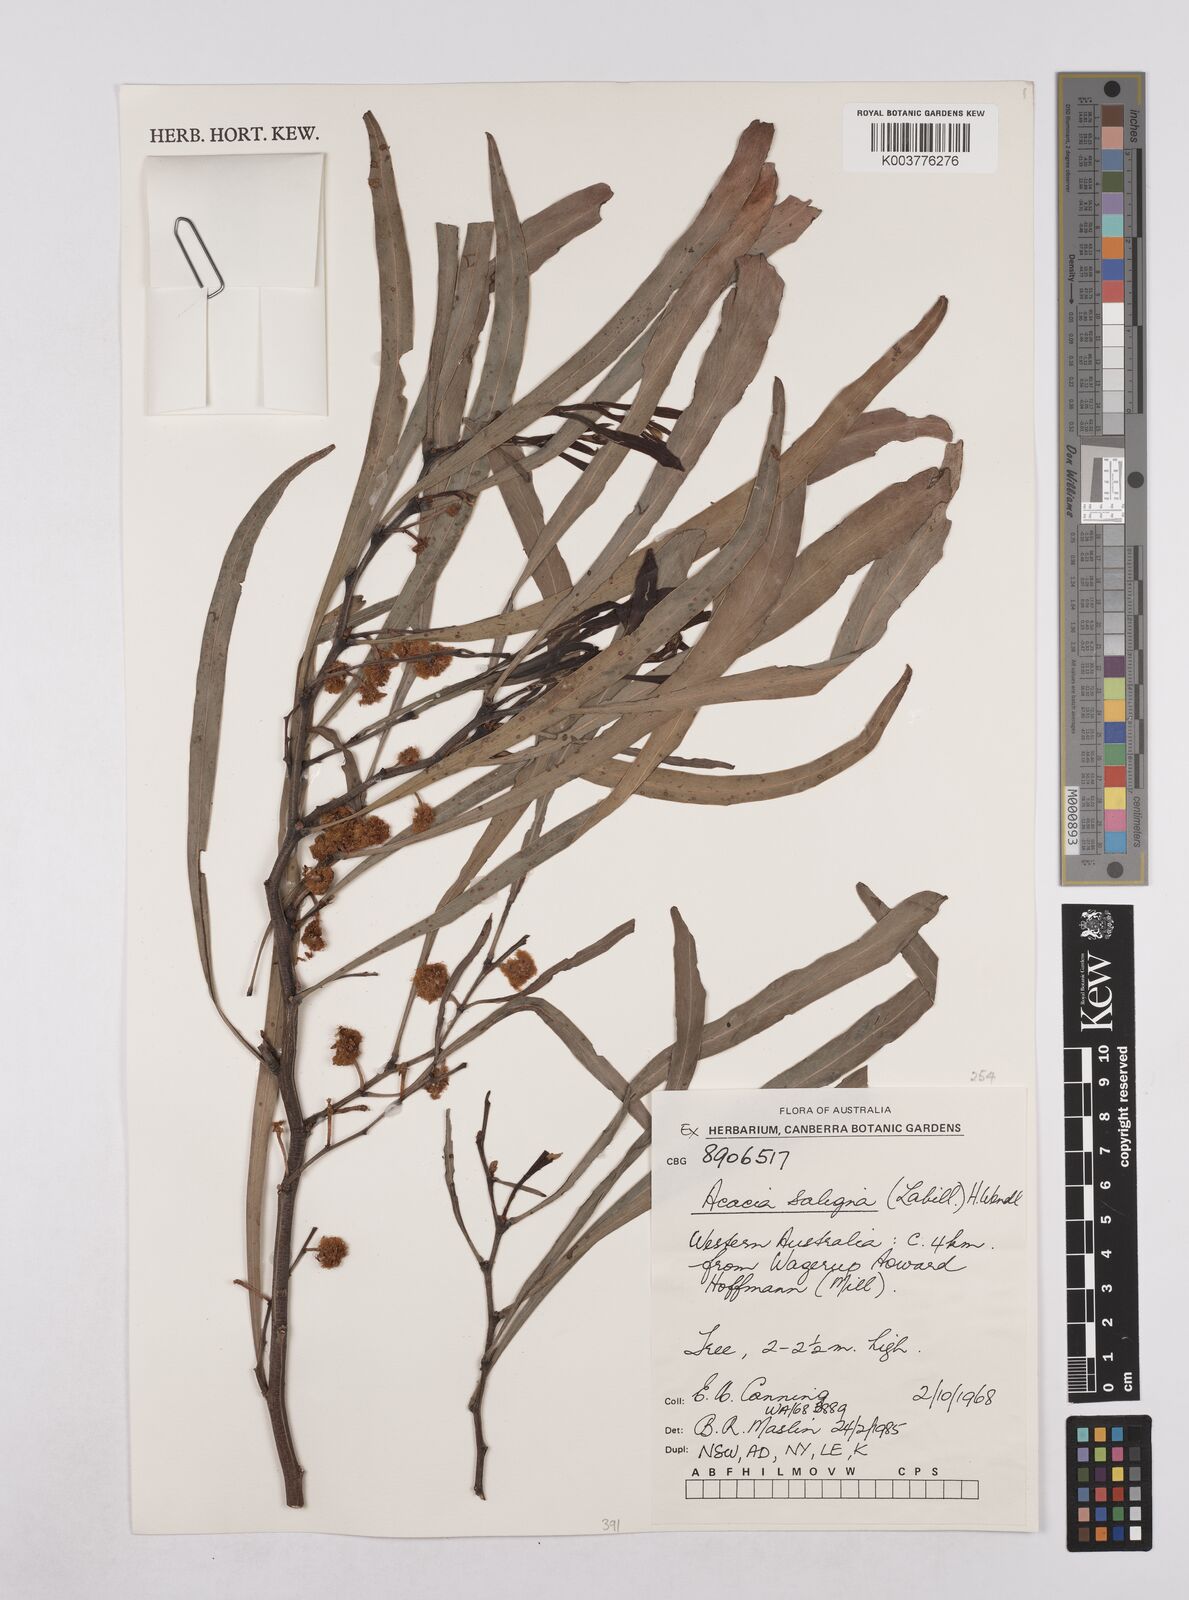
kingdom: Plantae
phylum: Tracheophyta
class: Magnoliopsida
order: Fabales
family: Fabaceae
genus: Acacia
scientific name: Acacia saligna
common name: Orange wattle
